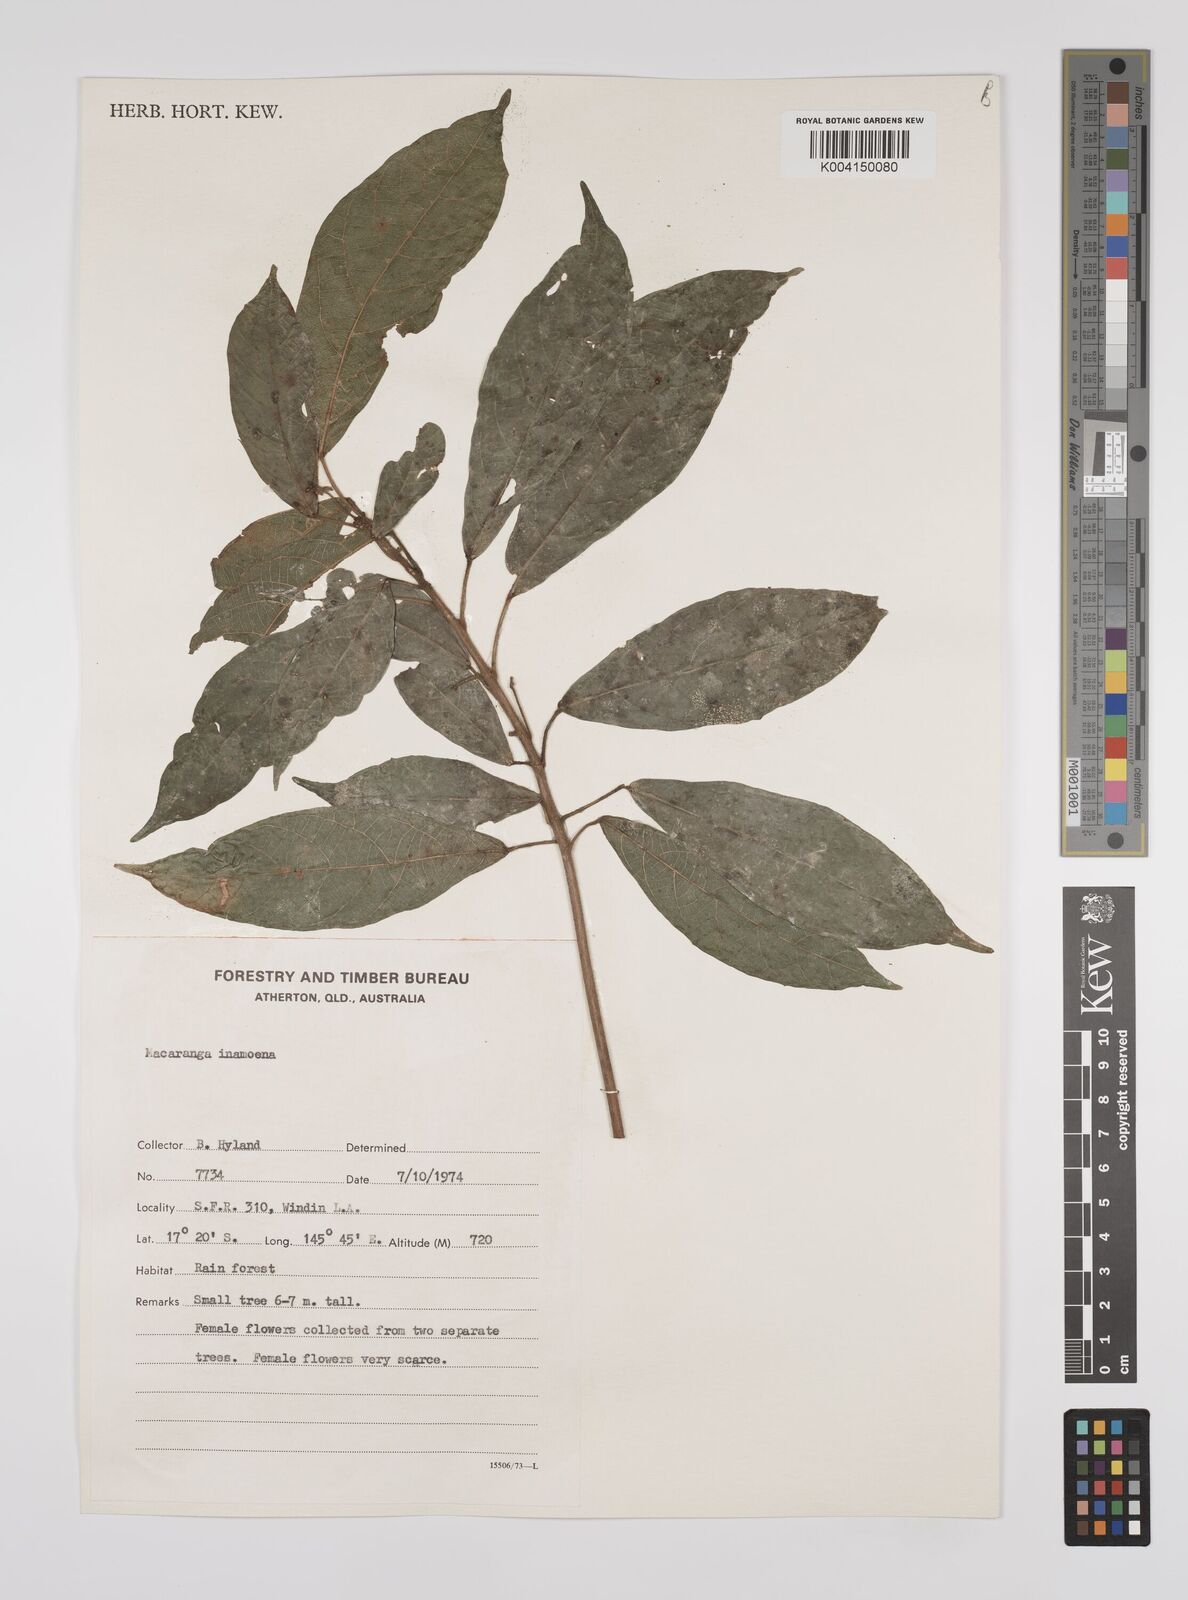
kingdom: Plantae
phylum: Tracheophyta
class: Magnoliopsida
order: Malpighiales
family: Euphorbiaceae
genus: Macaranga
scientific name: Macaranga inamoena
